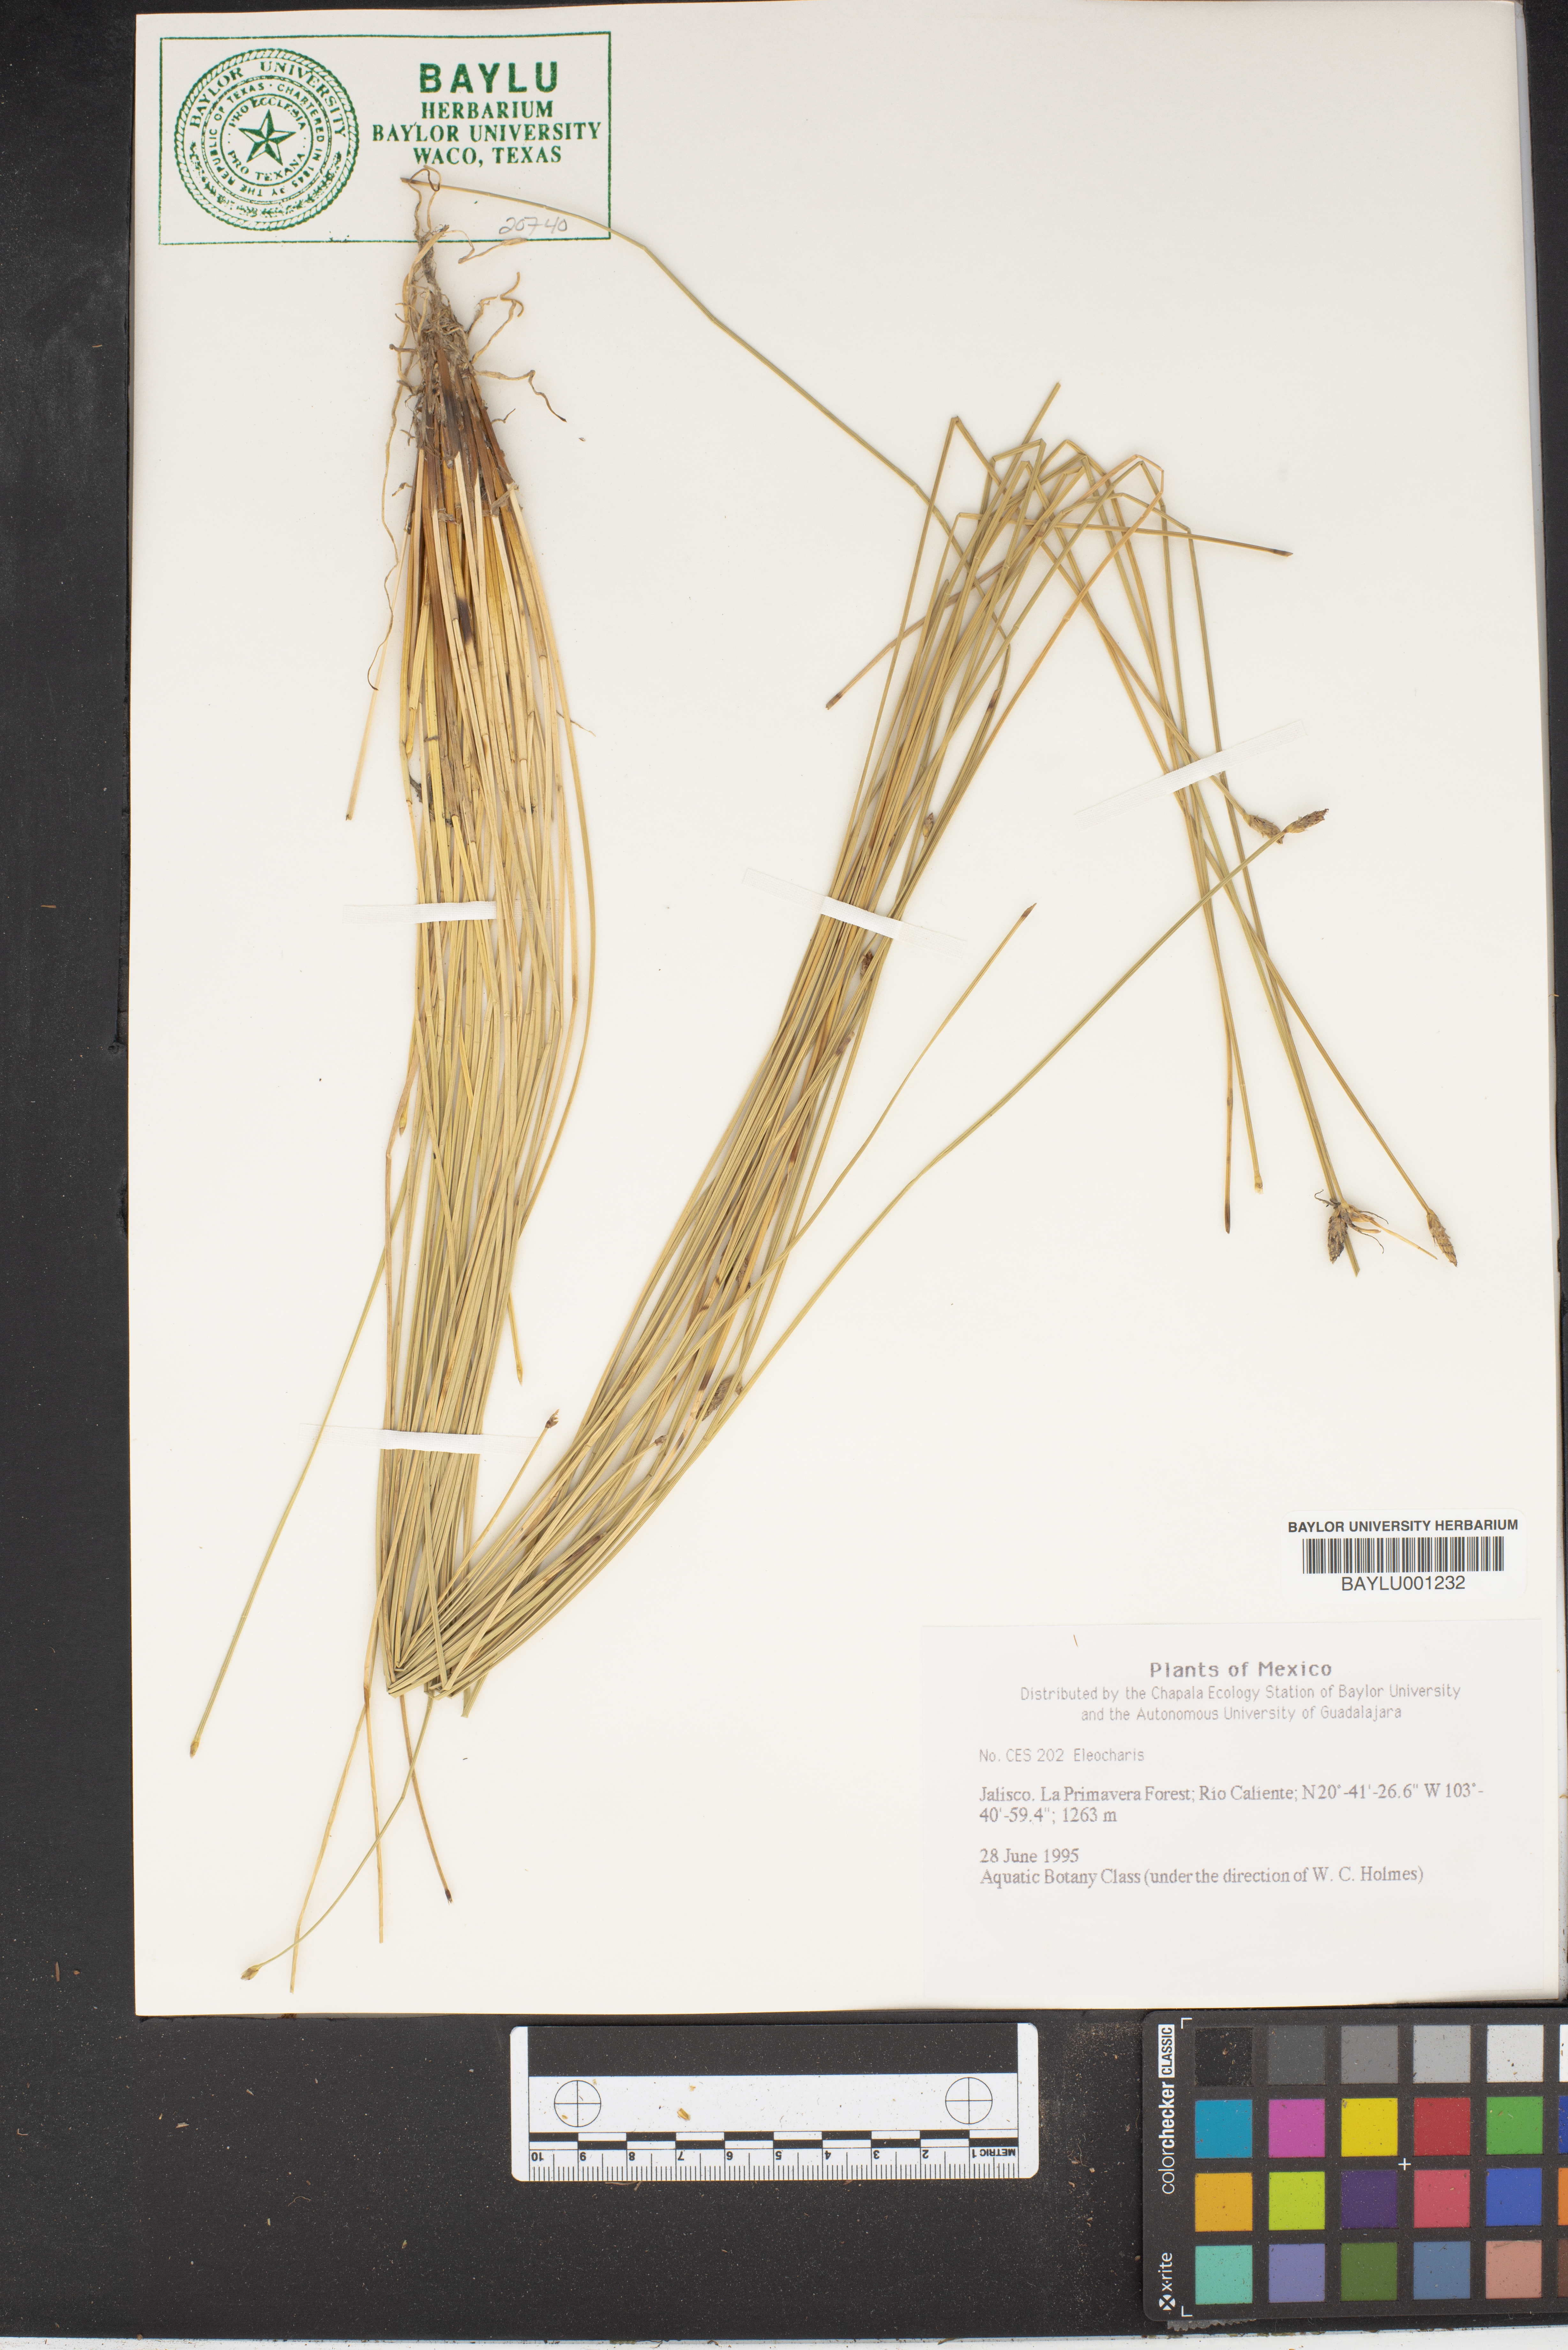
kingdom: Plantae
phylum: Tracheophyta
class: Liliopsida
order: Poales
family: Cyperaceae
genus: Eleocharis
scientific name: Eleocharis
